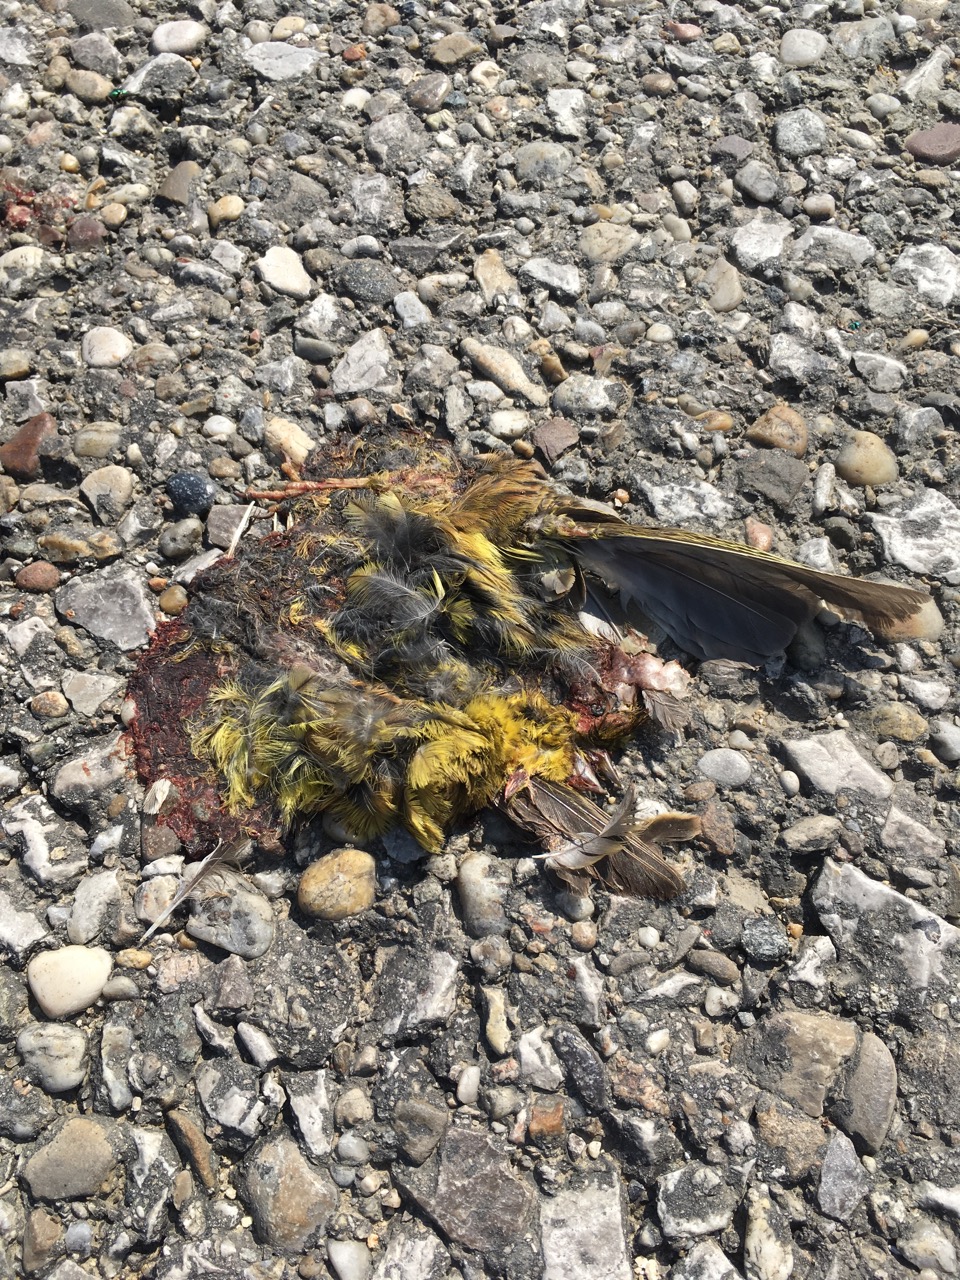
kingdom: Animalia
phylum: Chordata
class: Aves
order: Passeriformes
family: Fringillidae
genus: Serinus
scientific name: Serinus serinus
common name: European serin
